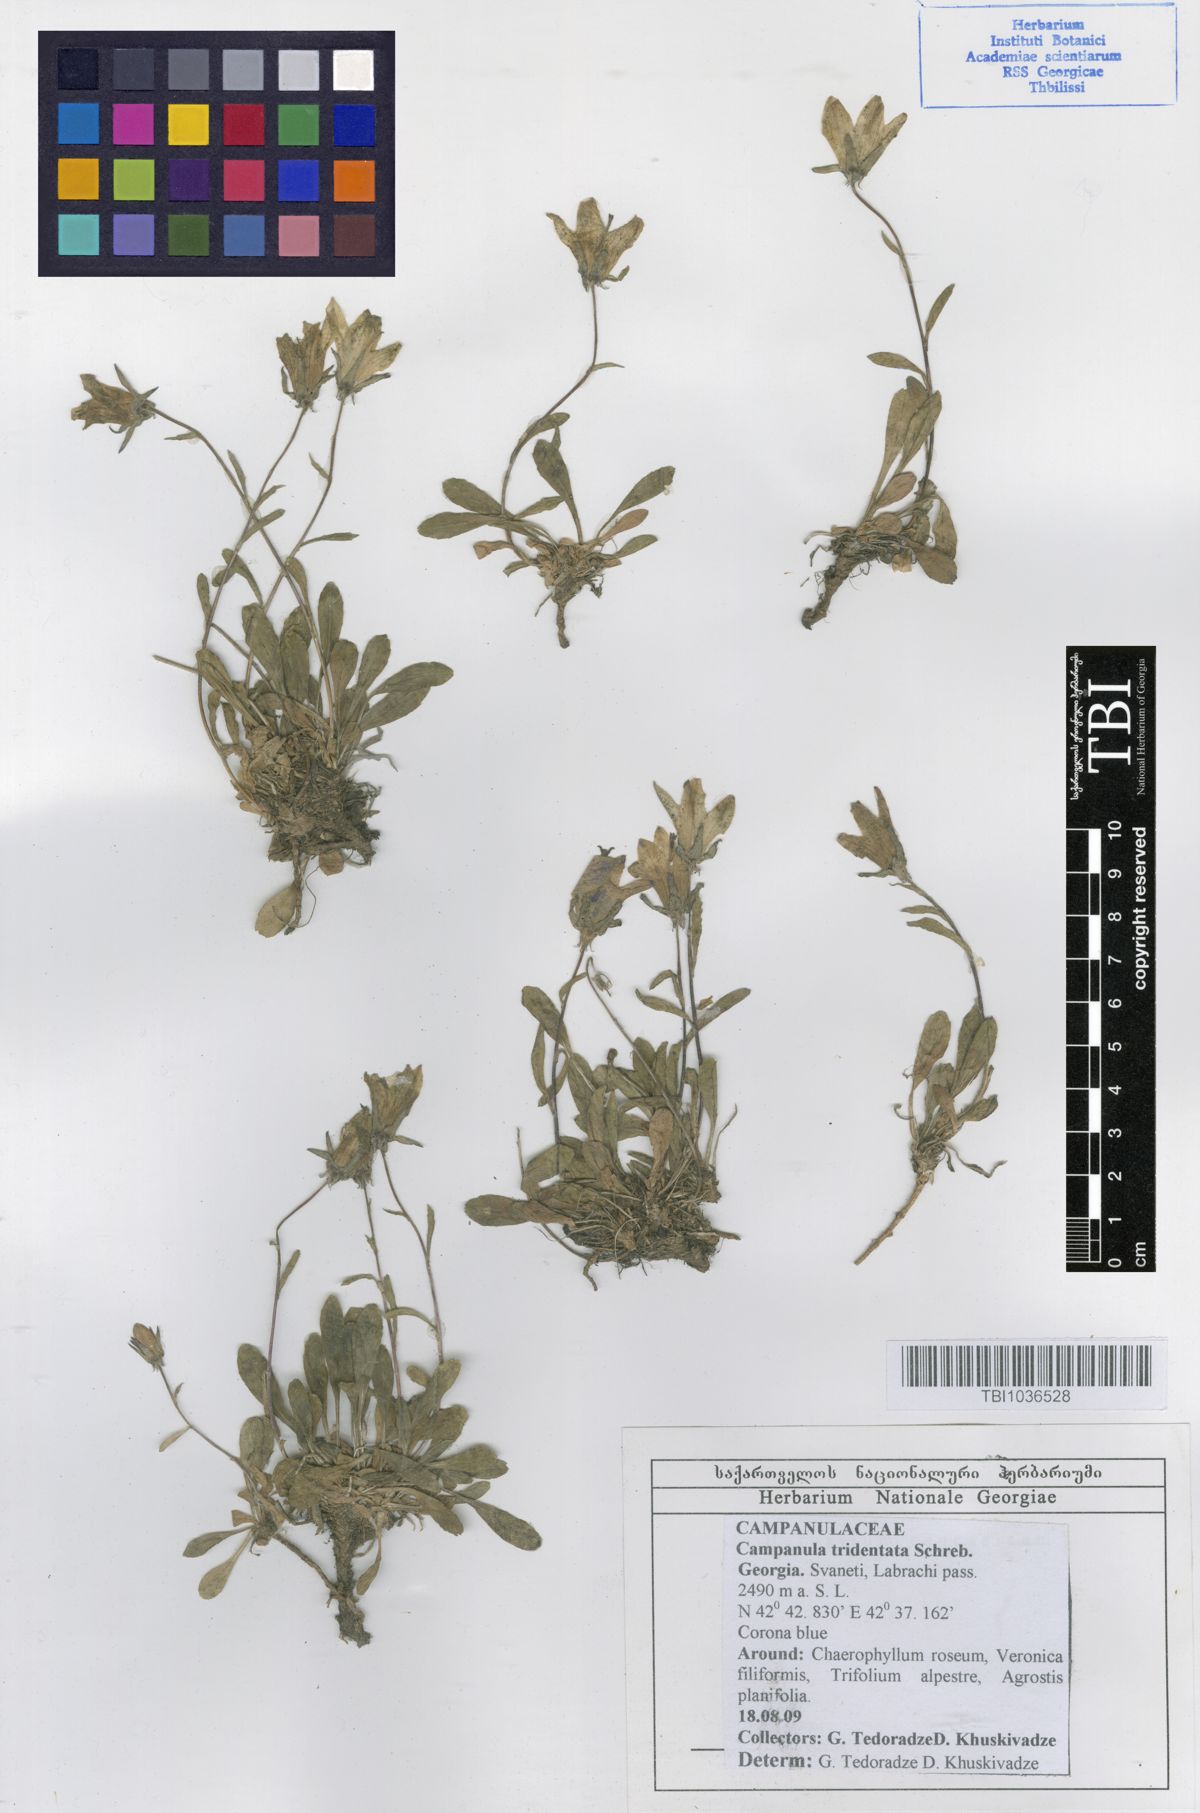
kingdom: Plantae
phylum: Tracheophyta
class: Magnoliopsida
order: Asterales
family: Campanulaceae
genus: Campanula
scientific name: Campanula tridentata
